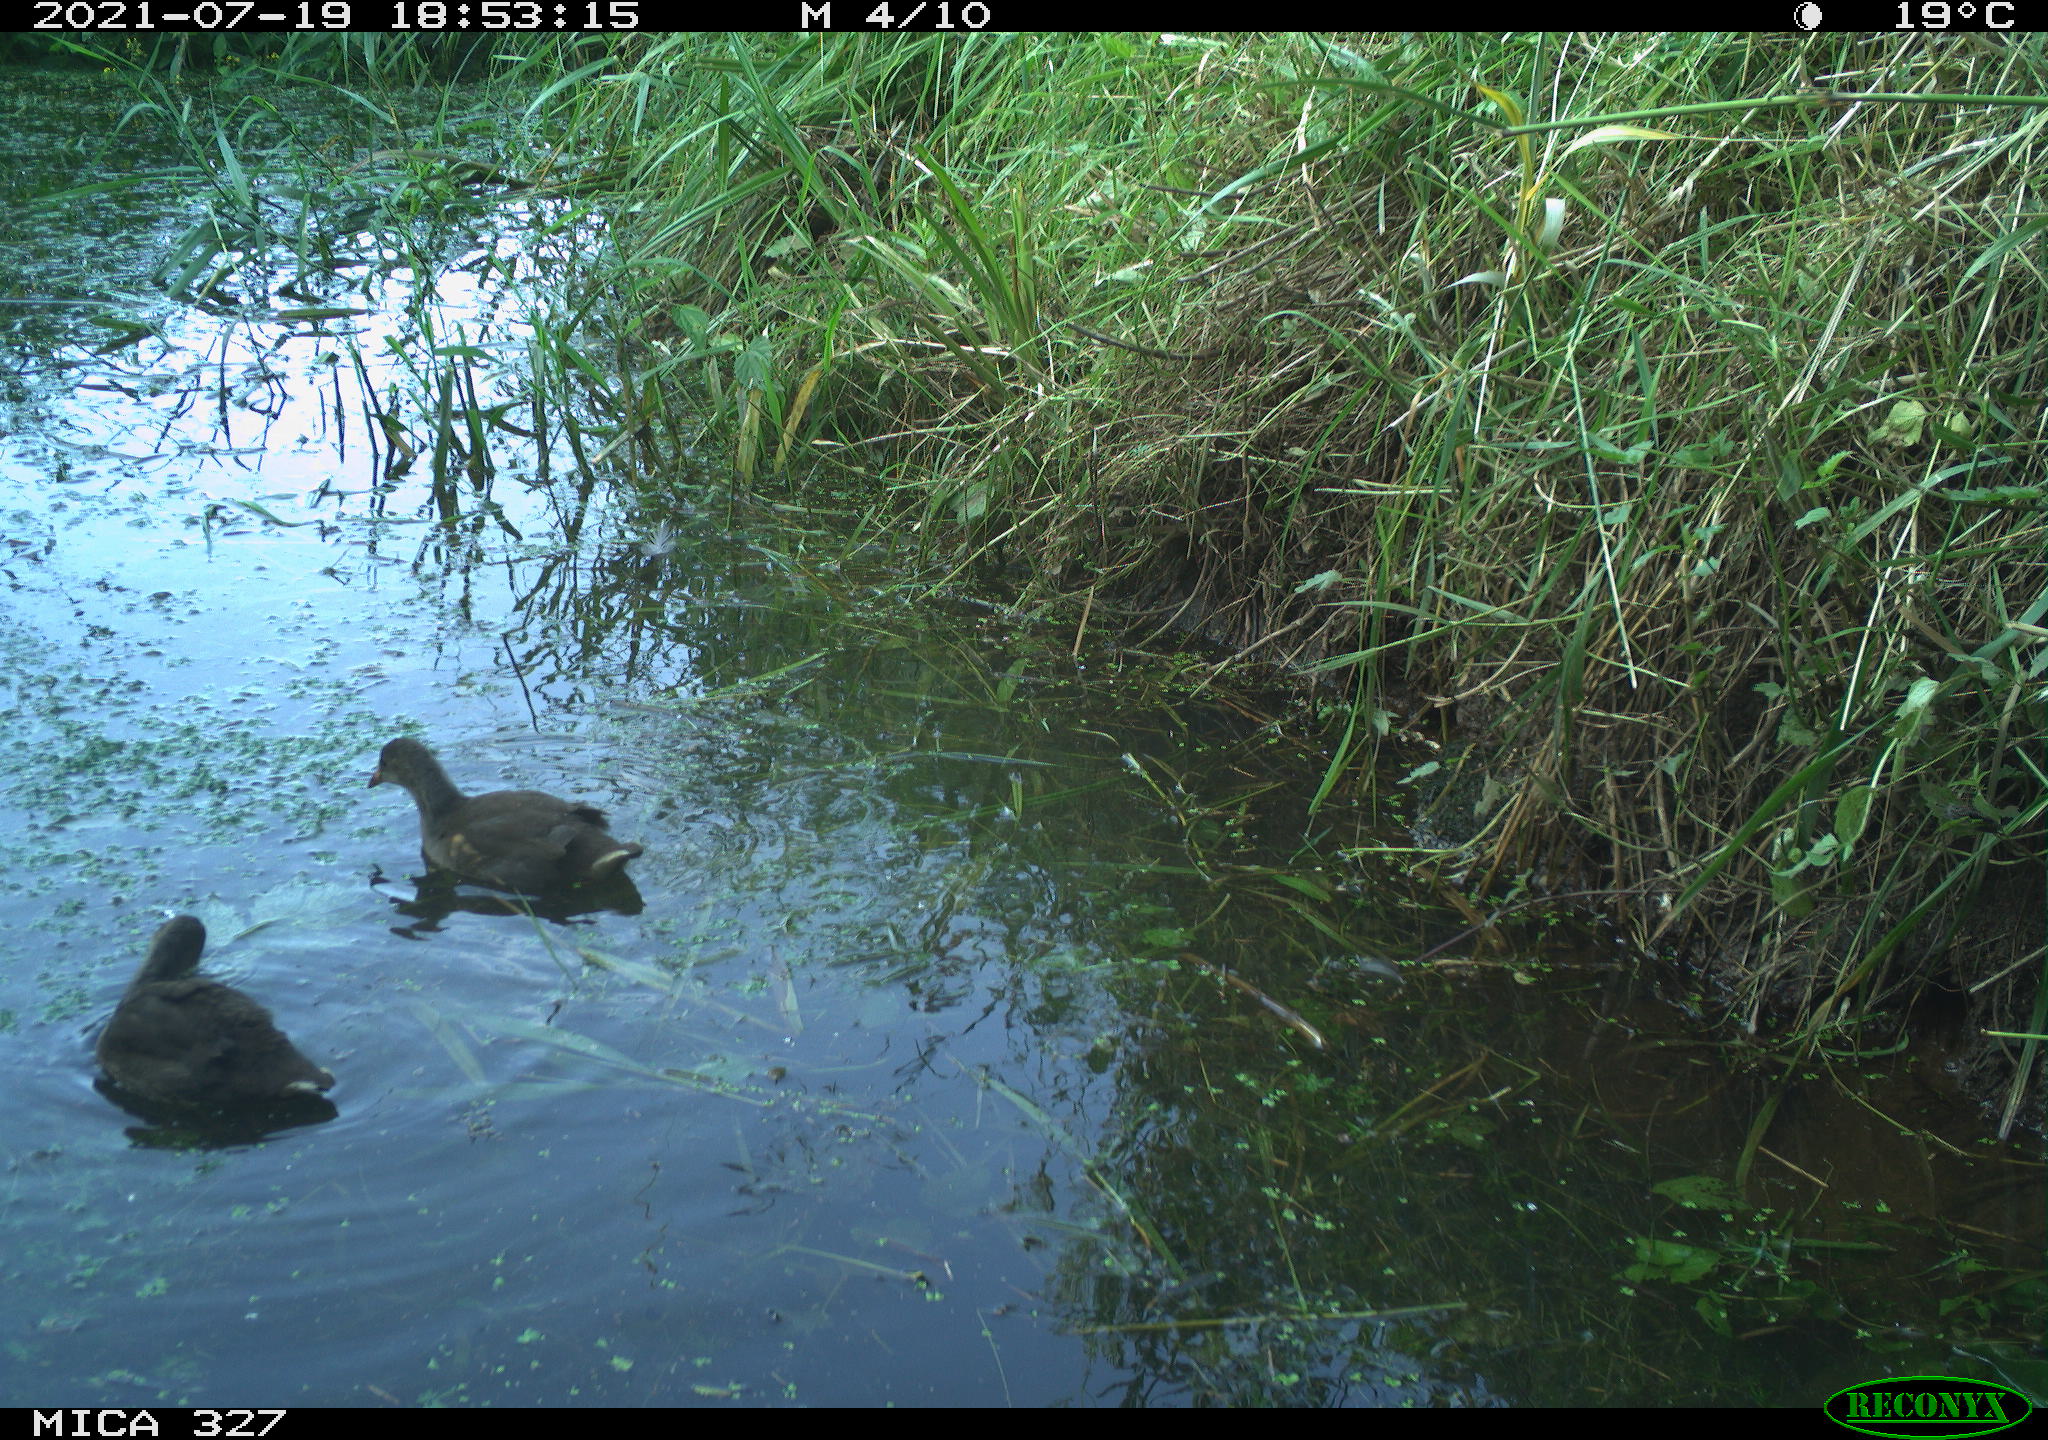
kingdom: Animalia
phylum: Chordata
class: Aves
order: Gruiformes
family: Rallidae
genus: Gallinula
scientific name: Gallinula chloropus
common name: Common moorhen
